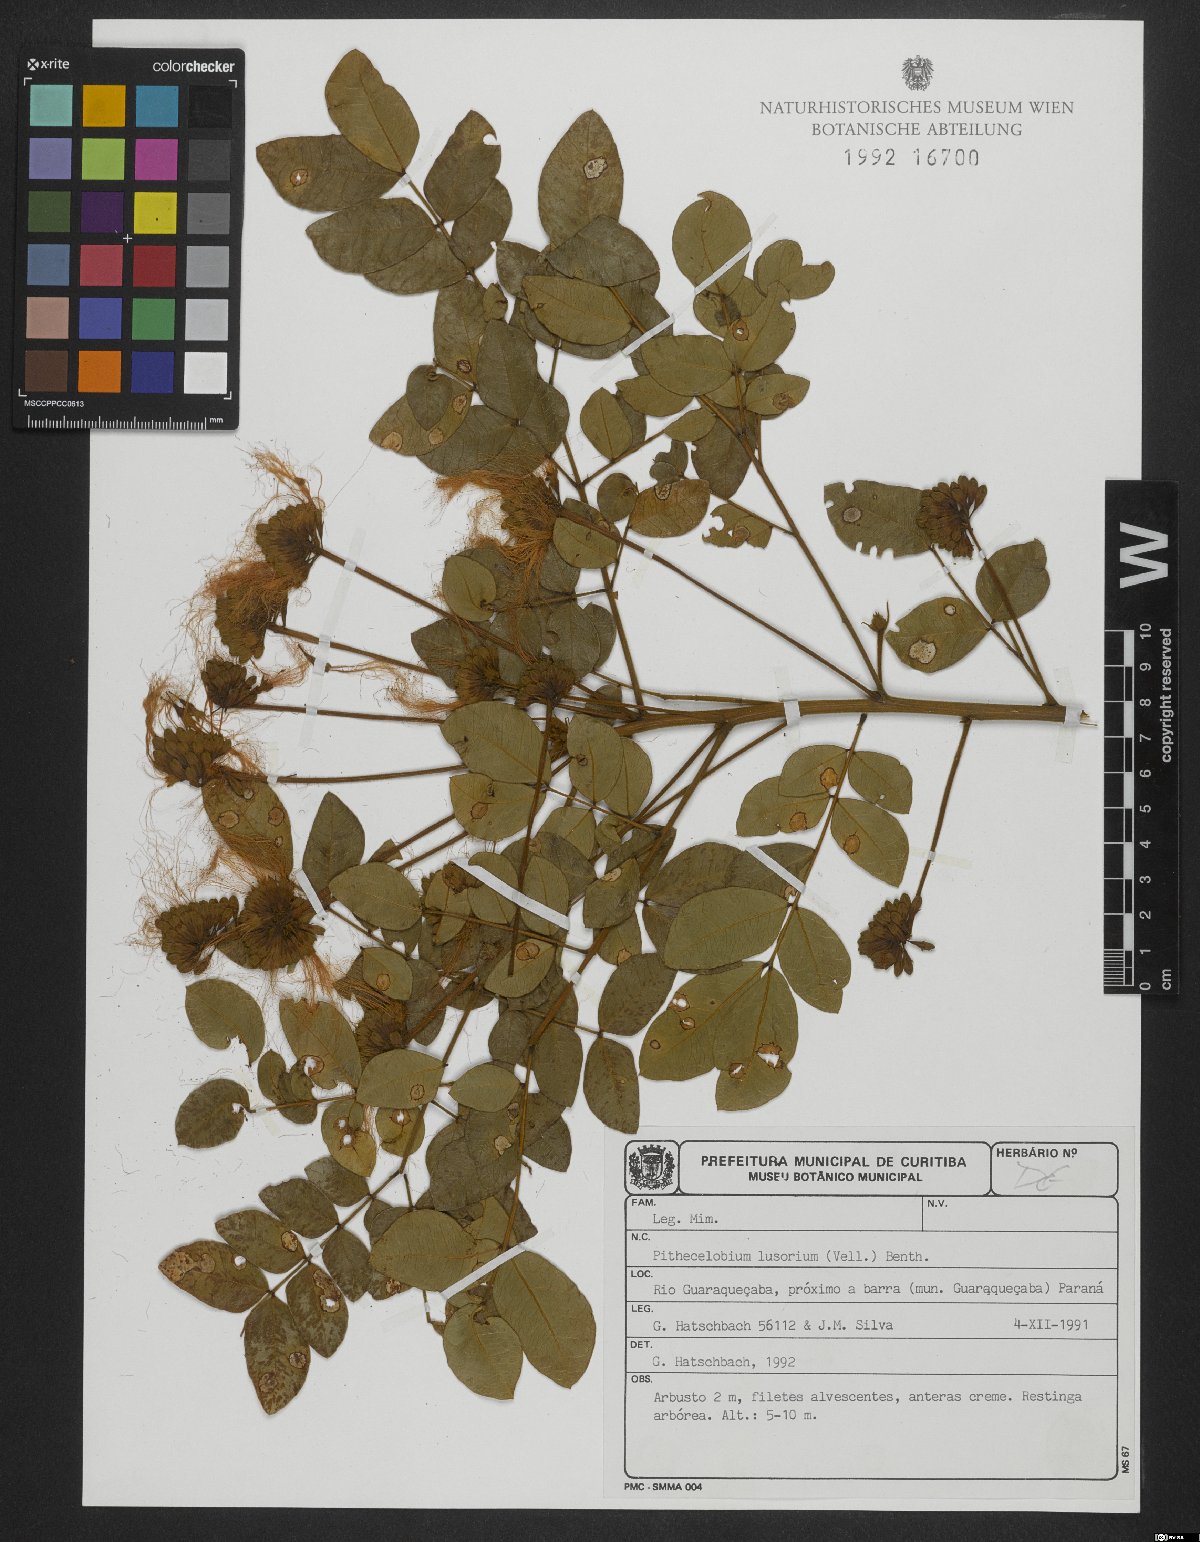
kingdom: Plantae
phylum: Tracheophyta
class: Magnoliopsida
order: Fabales
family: Fabaceae
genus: Jupunba
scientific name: Jupunba brachystachya
